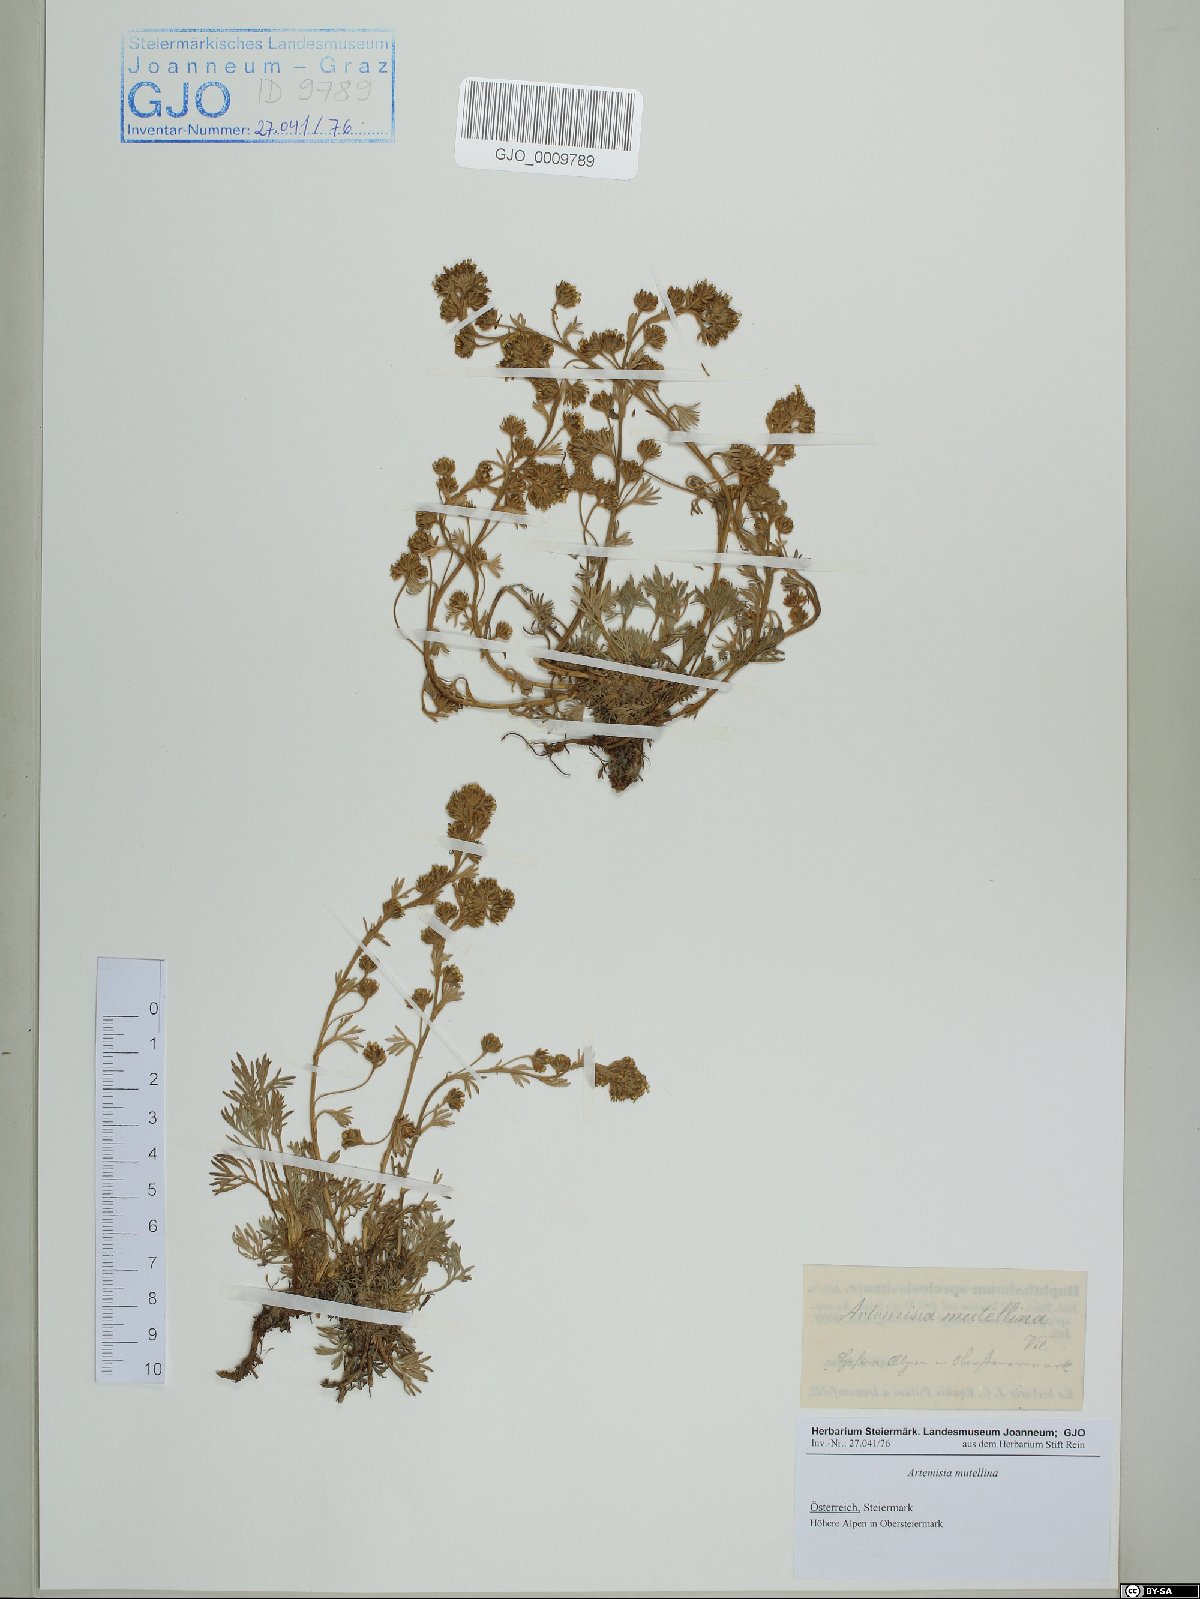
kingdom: Plantae
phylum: Tracheophyta
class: Magnoliopsida
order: Asterales
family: Asteraceae
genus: Artemisia
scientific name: Artemisia mutellina
